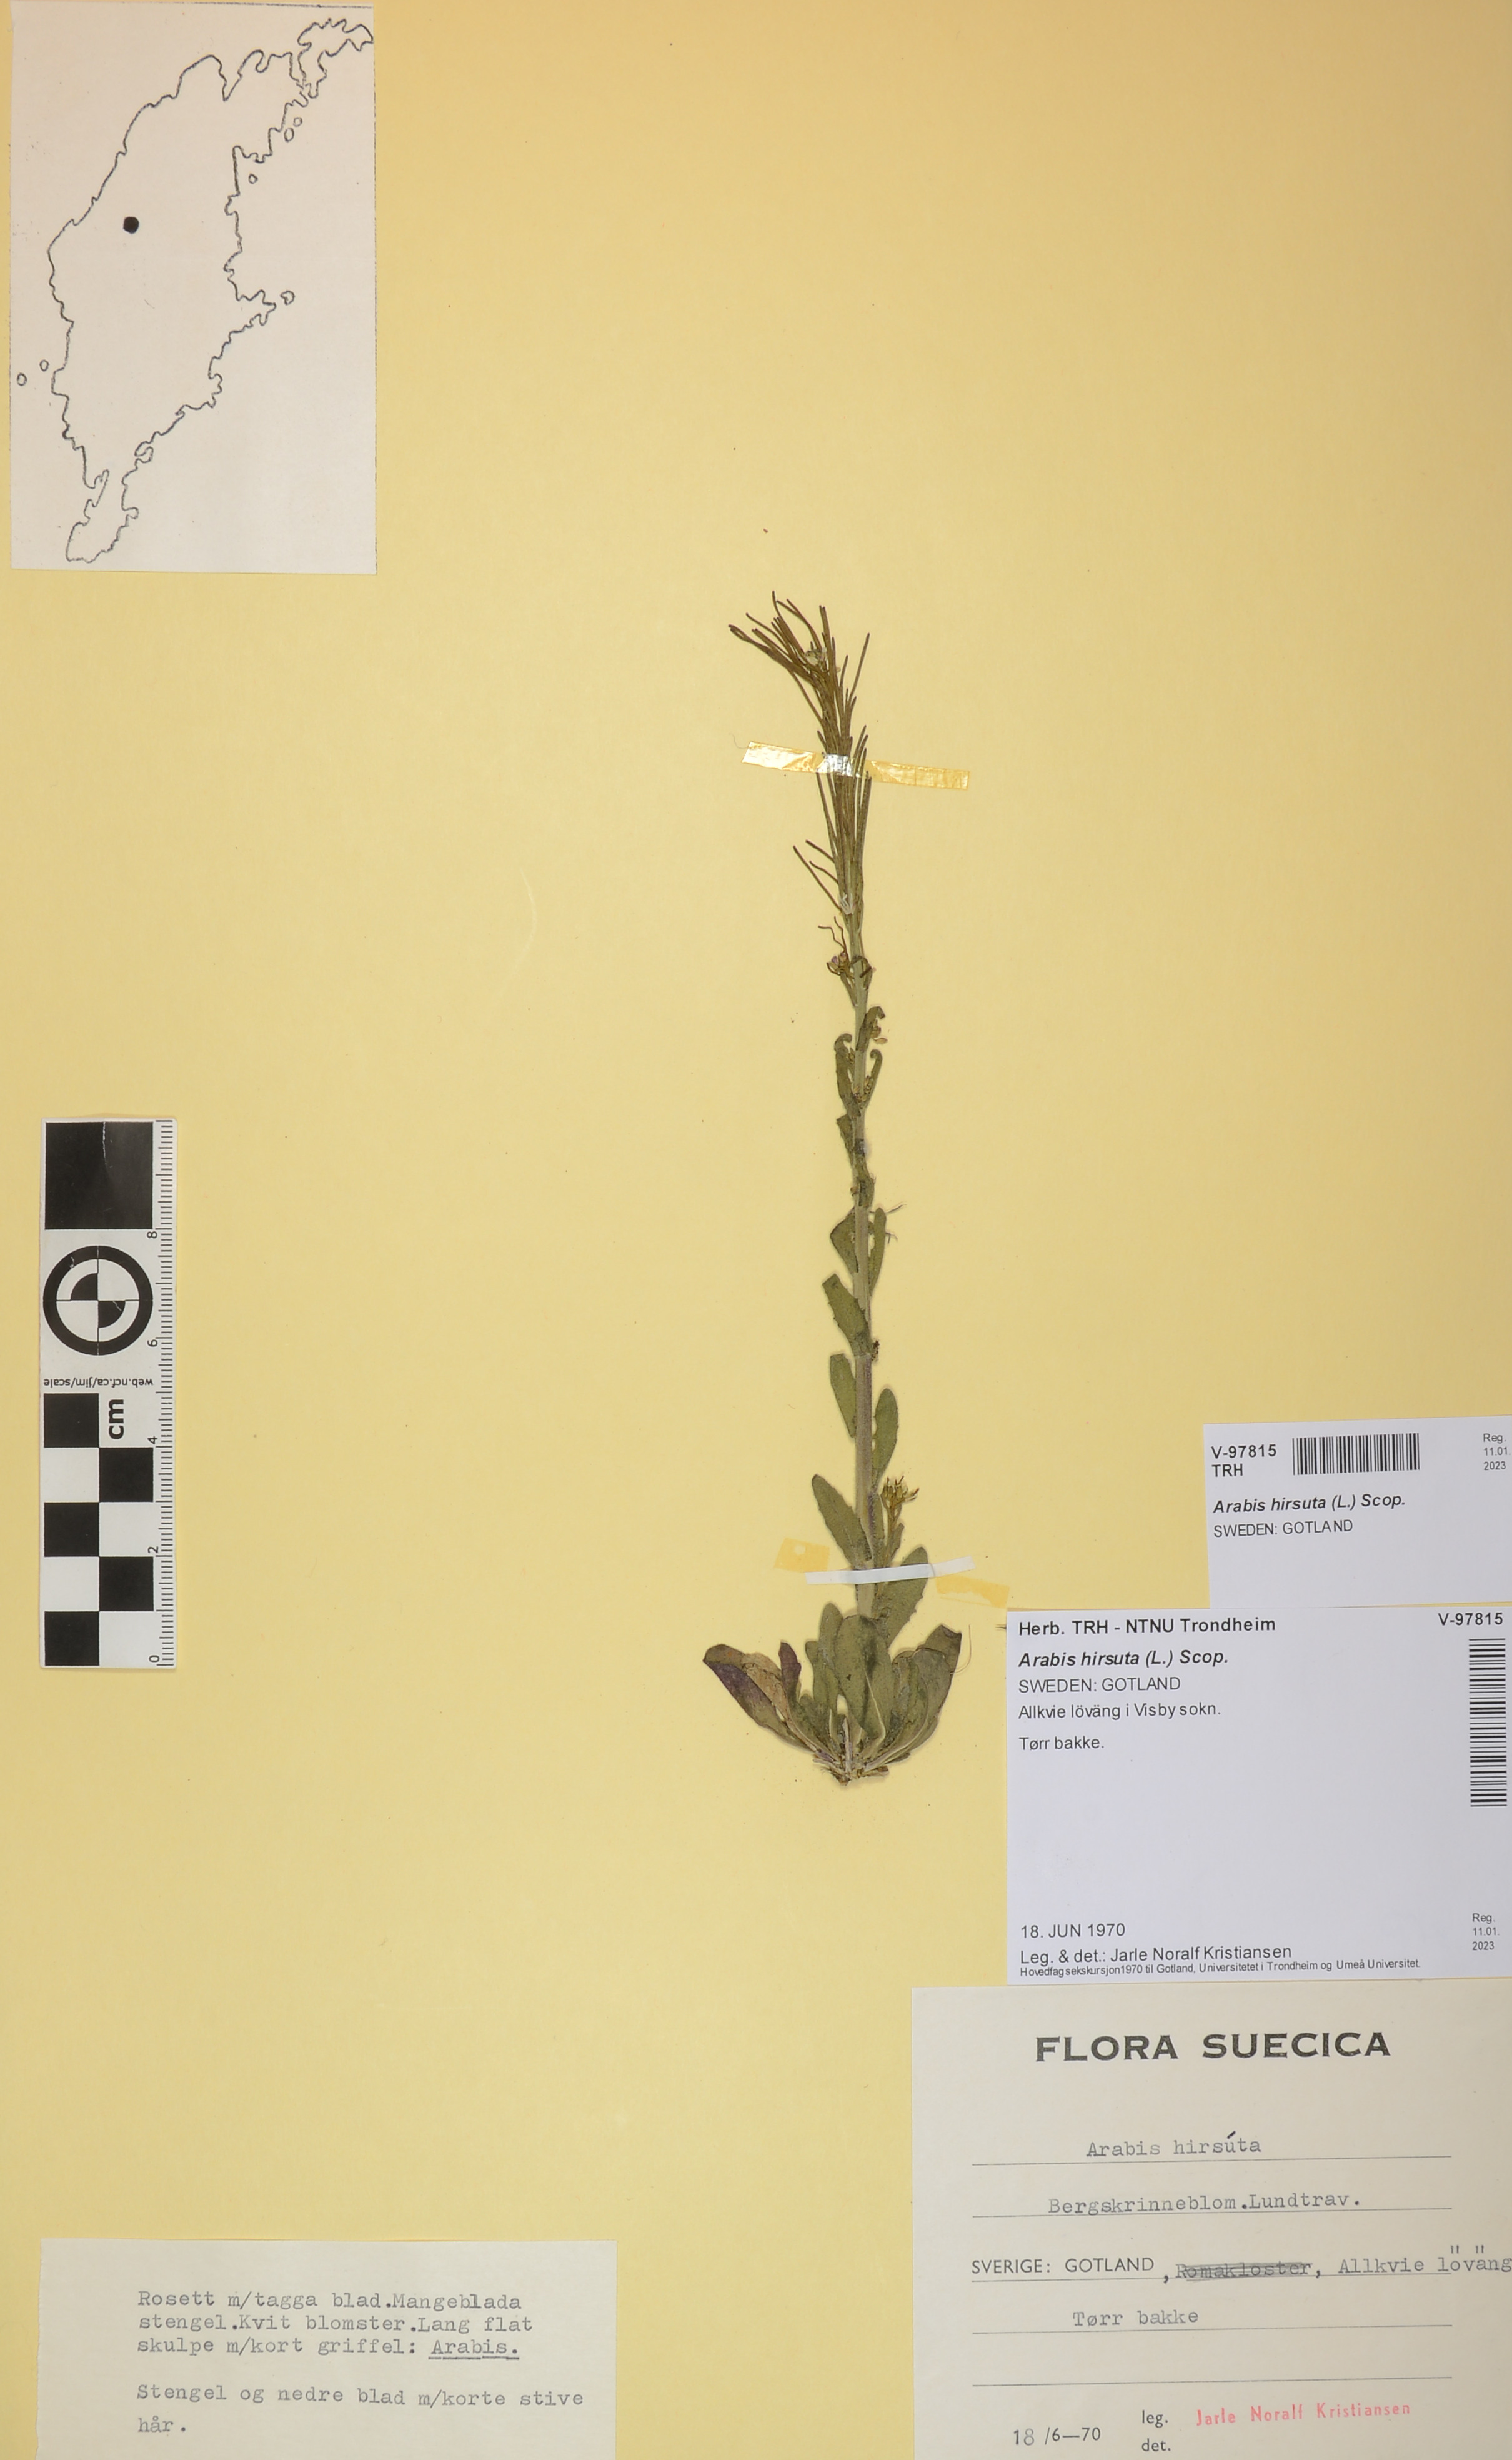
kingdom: Plantae
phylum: Tracheophyta
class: Magnoliopsida
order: Brassicales
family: Brassicaceae
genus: Arabis
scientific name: Arabis hirsuta
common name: Hairy rock-cress
